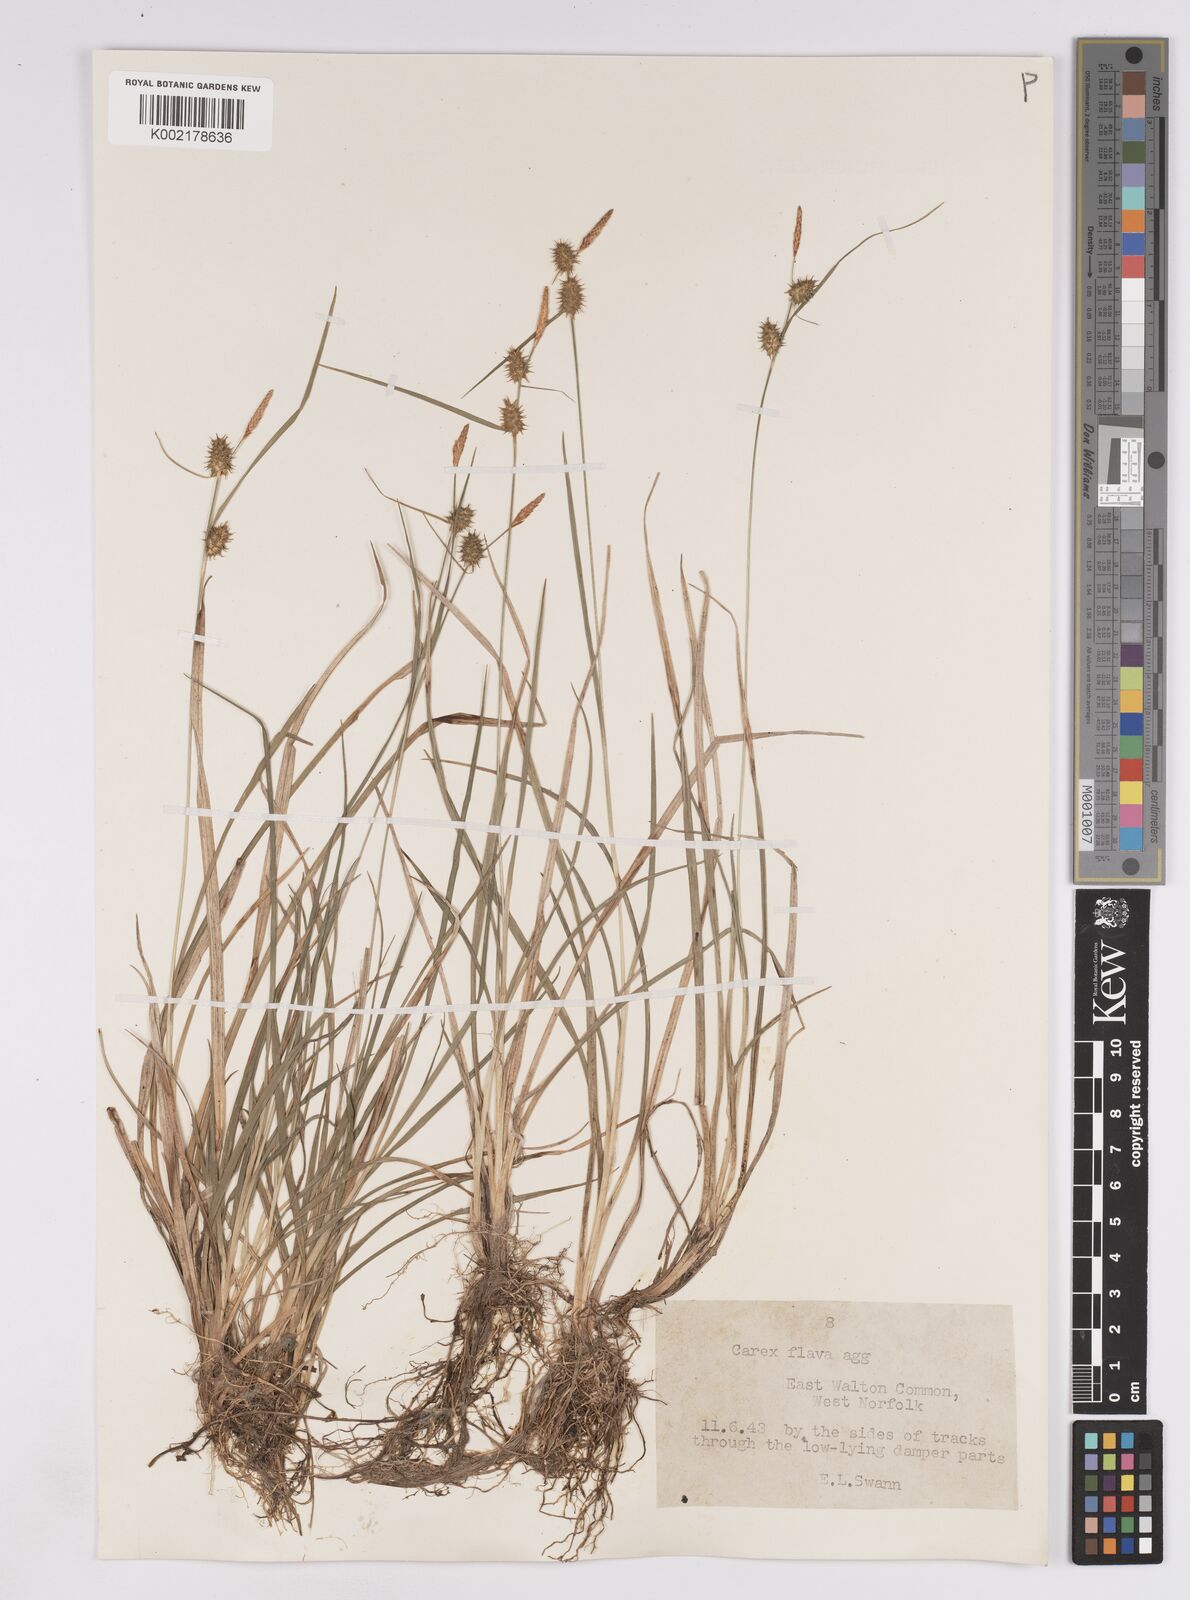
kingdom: Plantae
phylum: Tracheophyta
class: Liliopsida
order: Poales
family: Cyperaceae
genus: Carex
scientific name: Carex lepidocarpa
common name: Long-stalked yellow-sedge
